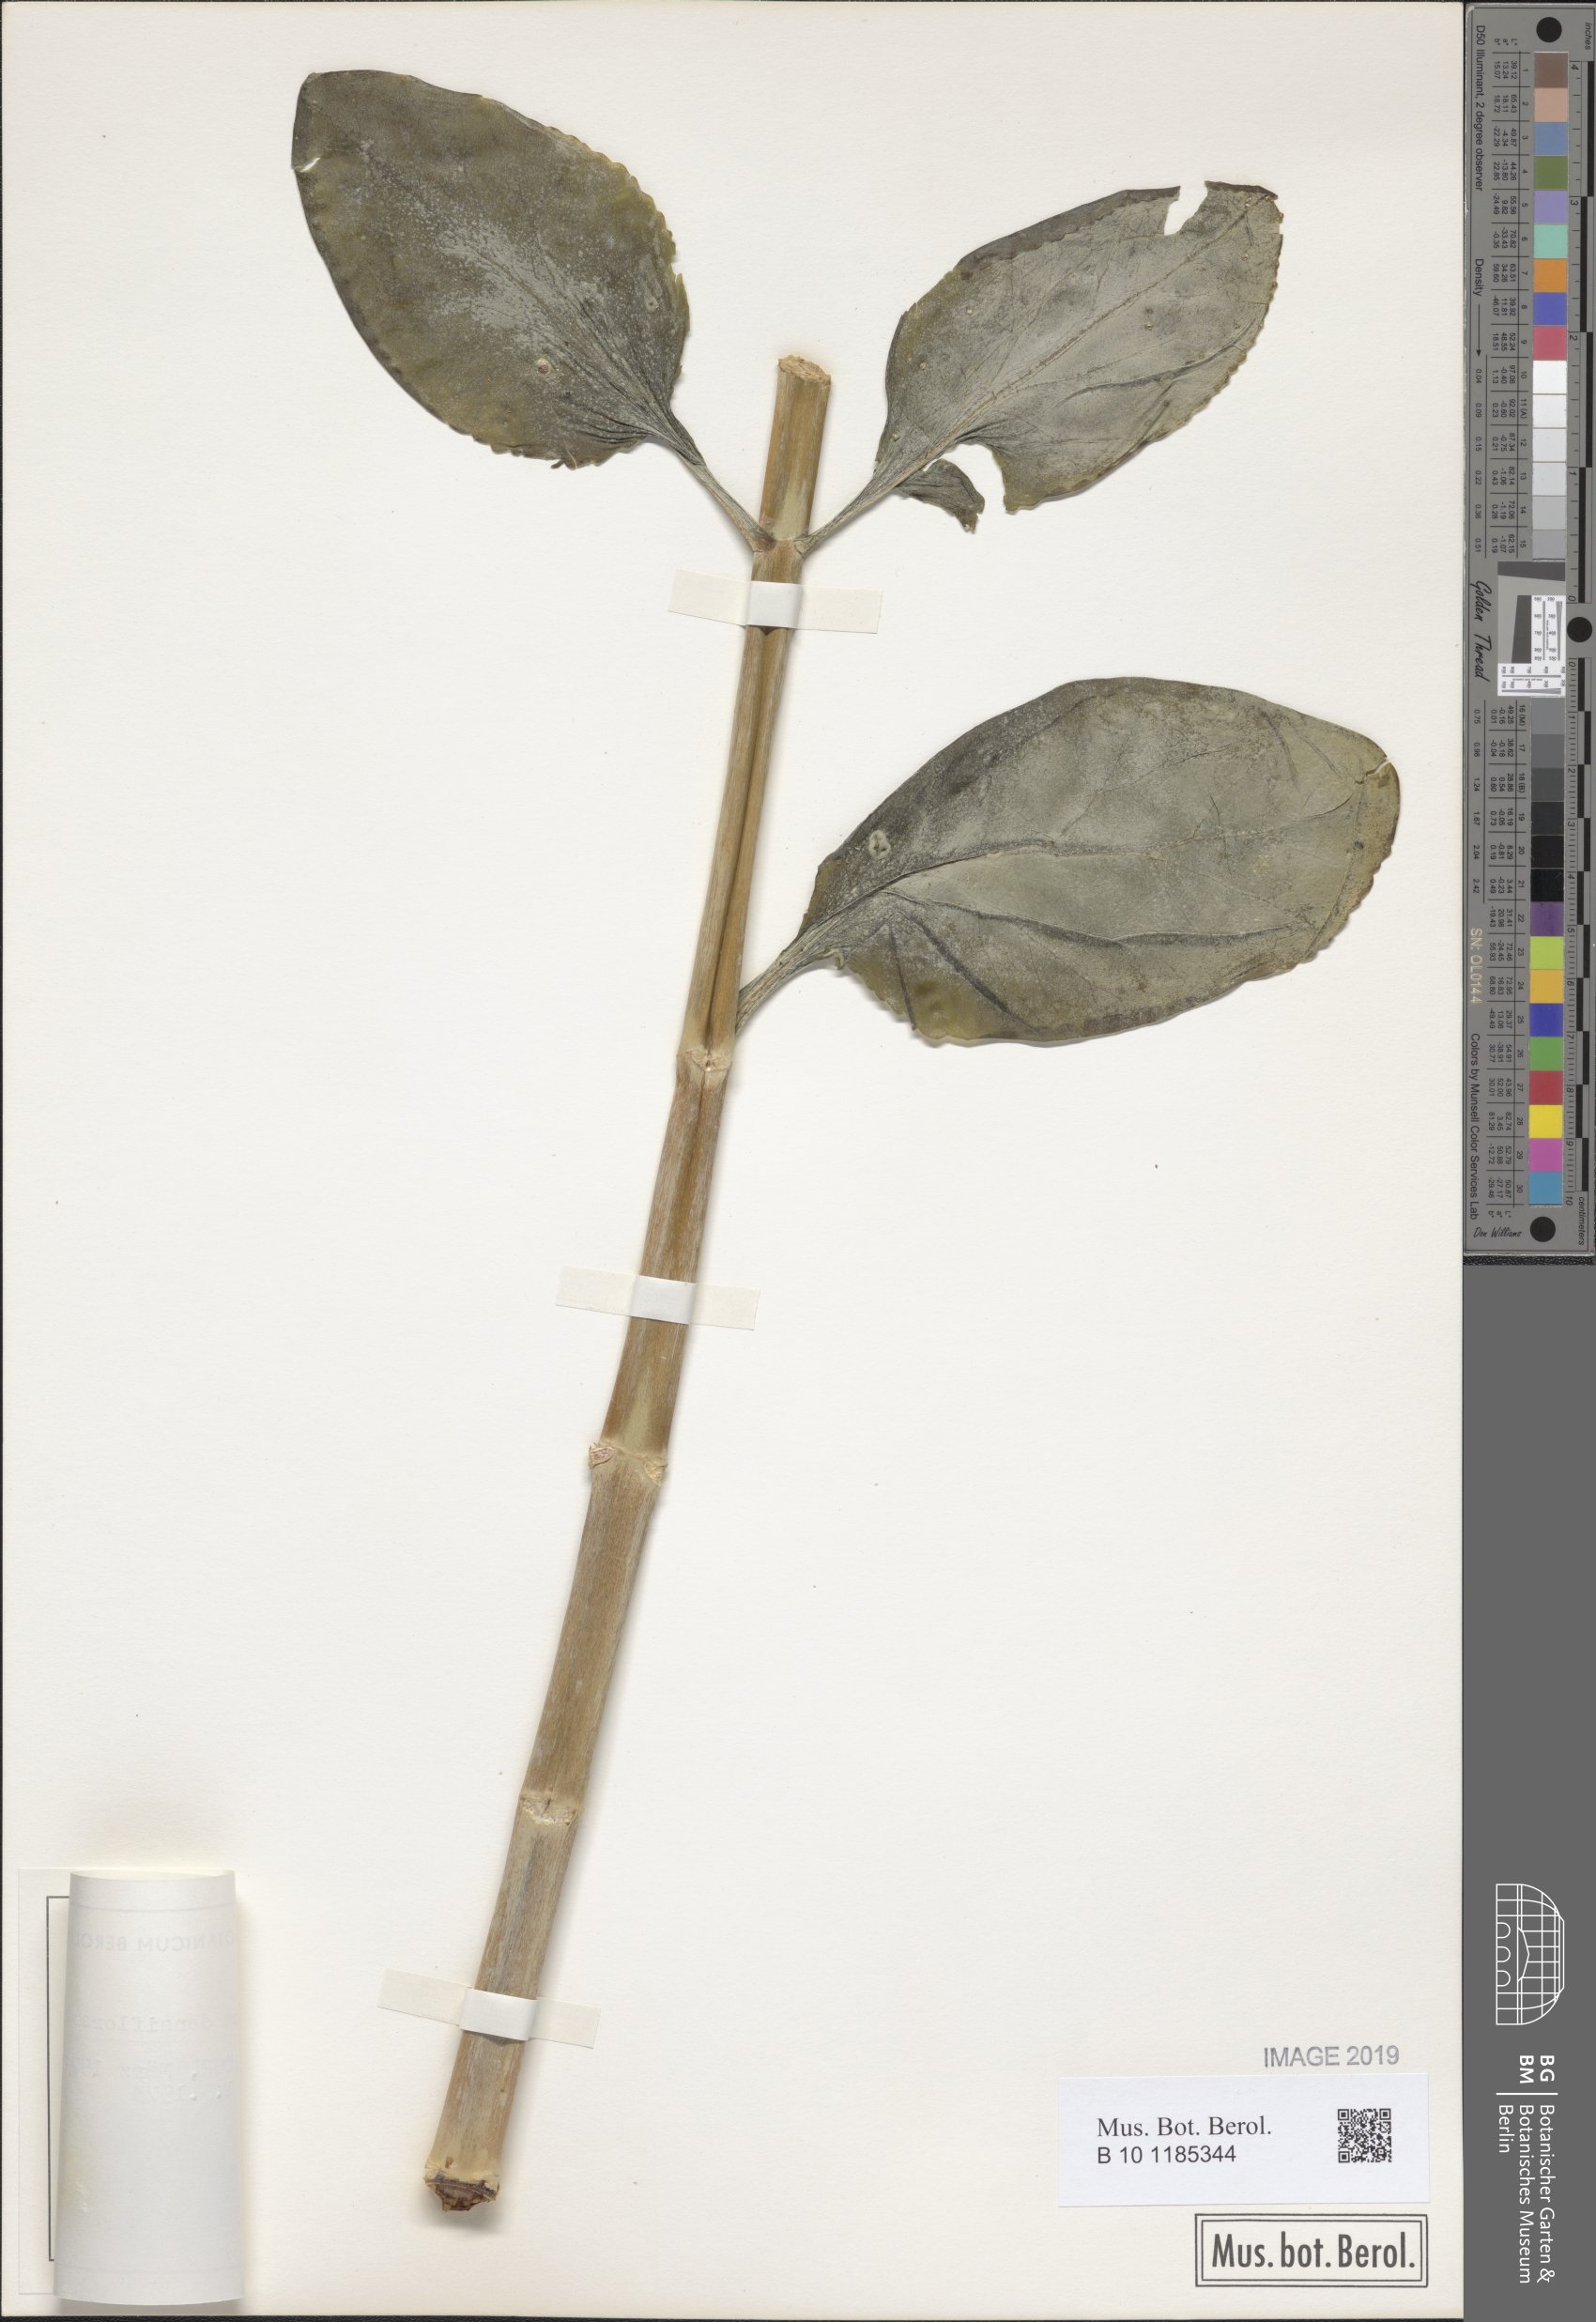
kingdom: Plantae
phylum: Tracheophyta
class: Magnoliopsida
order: Saxifragales
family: Crassulaceae
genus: Kalanchoe
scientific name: Kalanchoe densiflora
